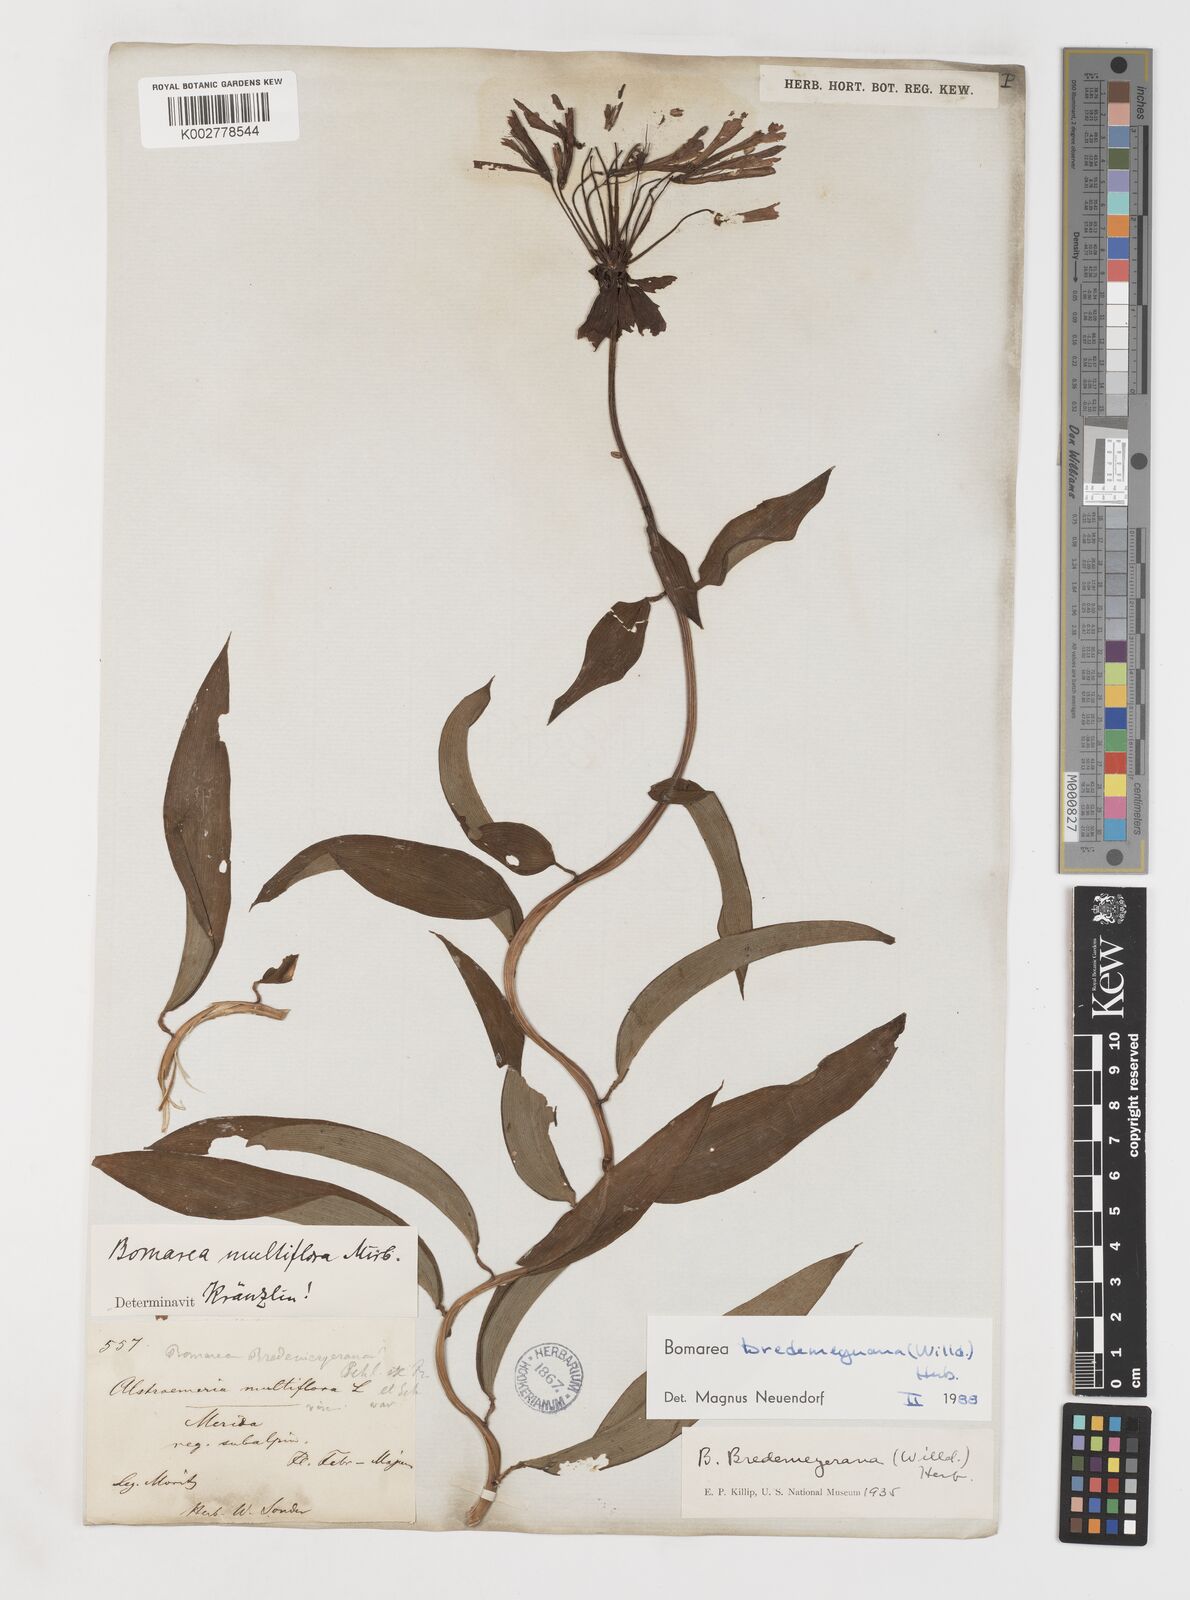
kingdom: Plantae
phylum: Tracheophyta
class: Liliopsida
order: Liliales
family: Alstroemeriaceae
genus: Bomarea
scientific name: Bomarea bredemeyeriana
